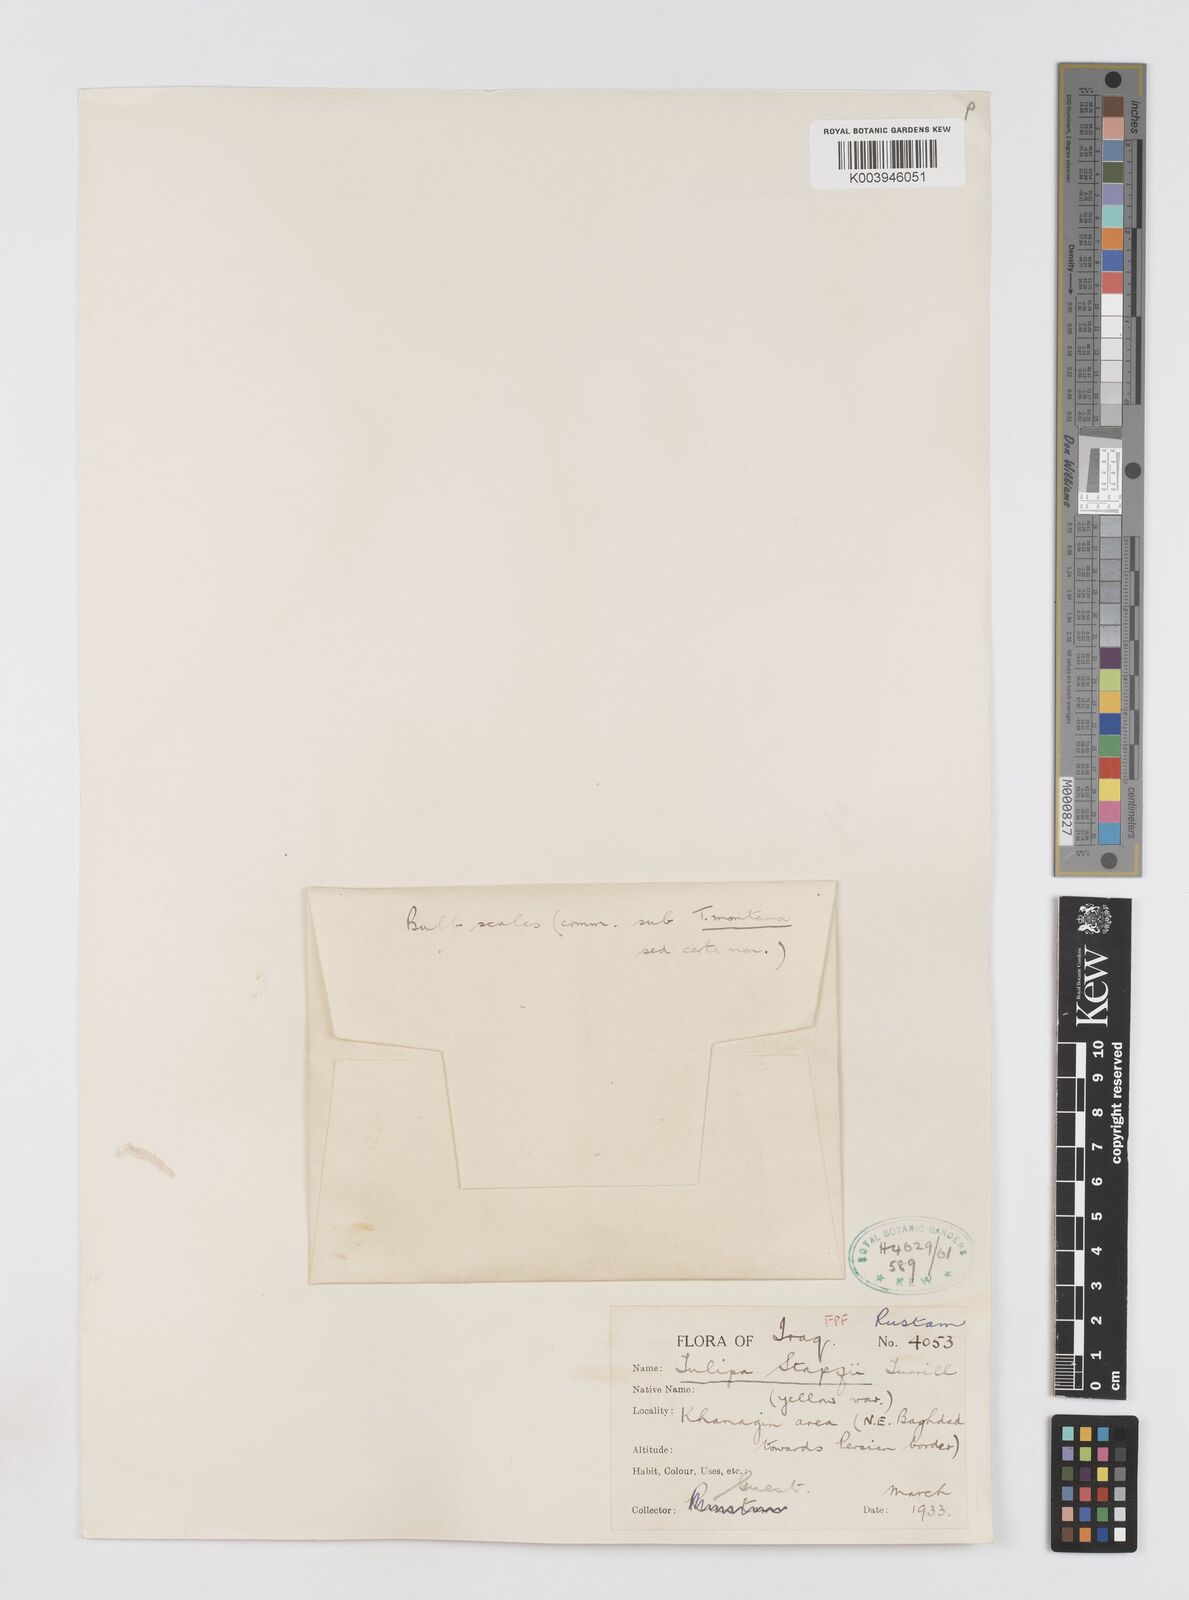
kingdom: Plantae
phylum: Tracheophyta
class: Liliopsida
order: Liliales
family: Liliaceae
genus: Tulipa
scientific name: Tulipa systola
